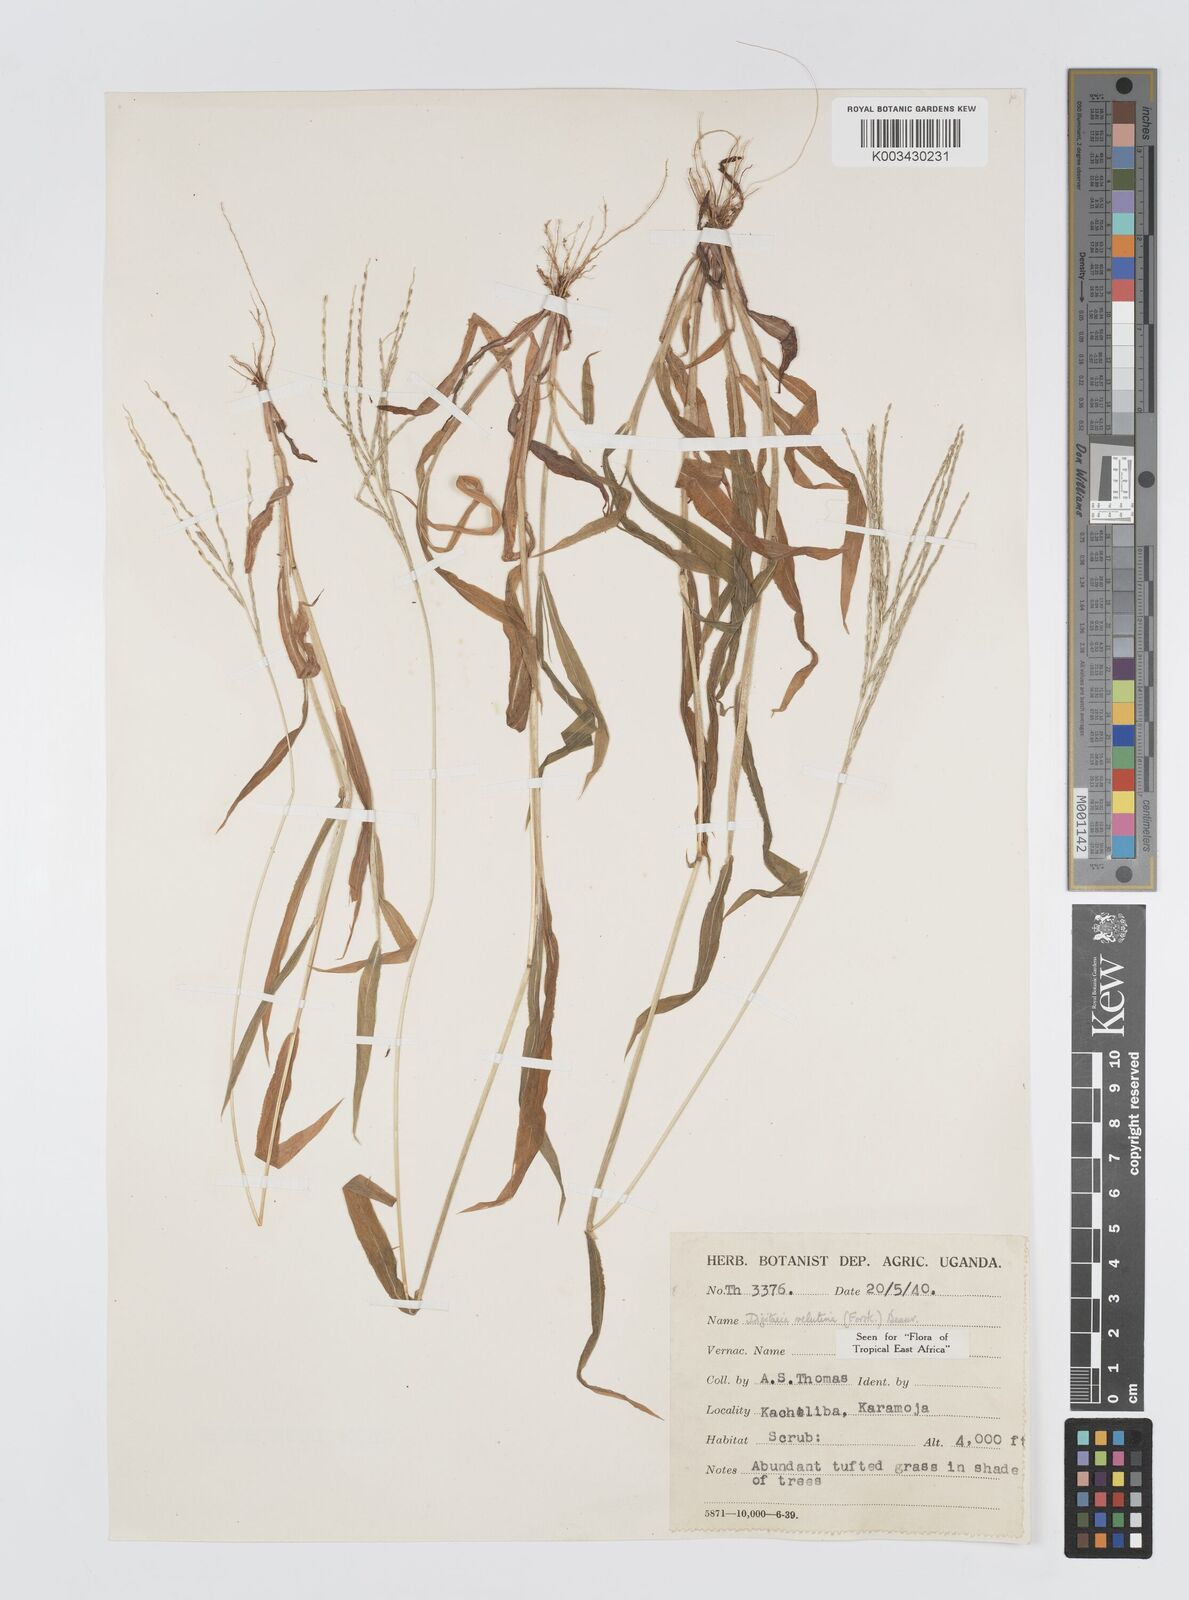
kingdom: Plantae
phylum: Tracheophyta
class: Liliopsida
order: Poales
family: Poaceae
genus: Digitaria
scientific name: Digitaria velutina
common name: Long-plume finger grass
